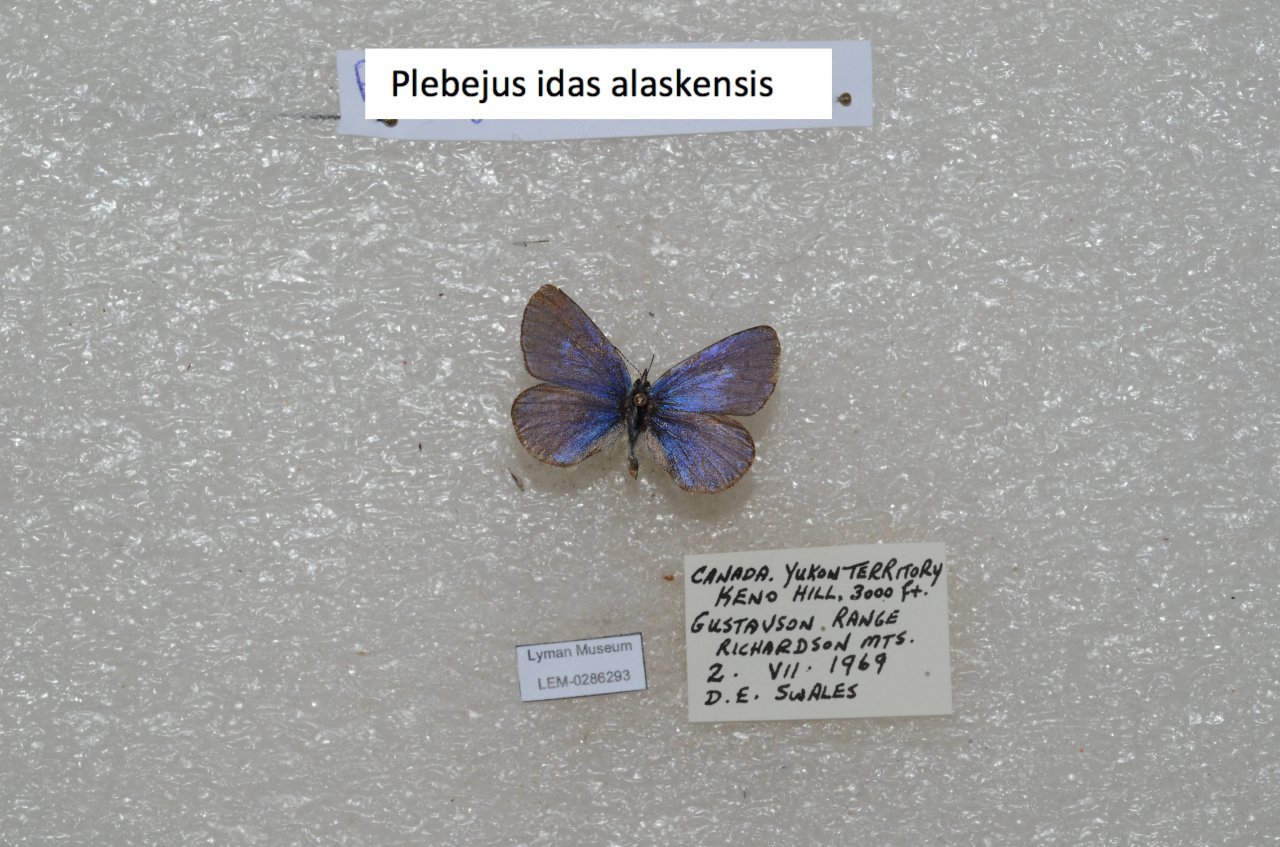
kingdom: Animalia
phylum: Arthropoda
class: Insecta
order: Lepidoptera
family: Lycaenidae
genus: Lycaeides
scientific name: Lycaeides idas
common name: Northern Blue
